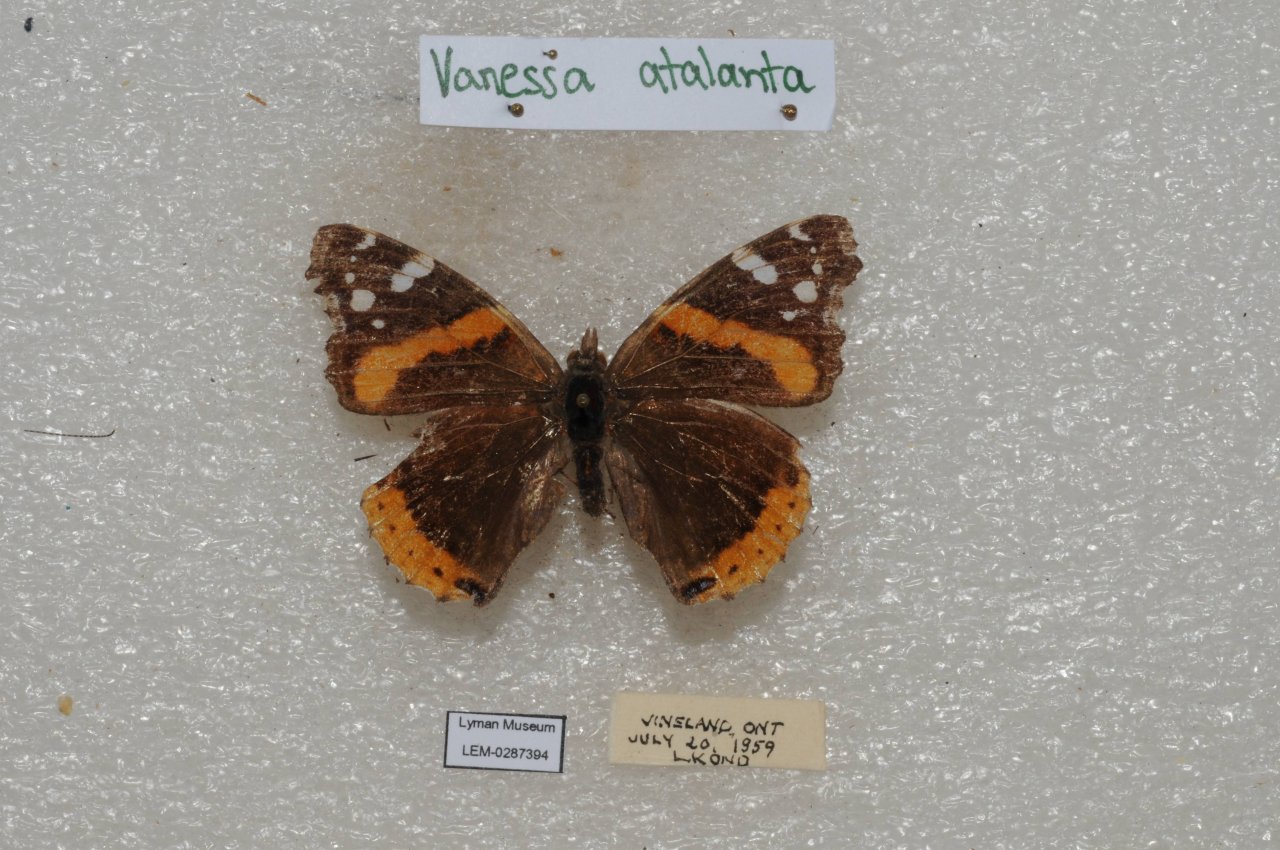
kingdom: Animalia
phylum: Arthropoda
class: Insecta
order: Lepidoptera
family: Nymphalidae
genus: Vanessa
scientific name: Vanessa atalanta
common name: Red Admiral
